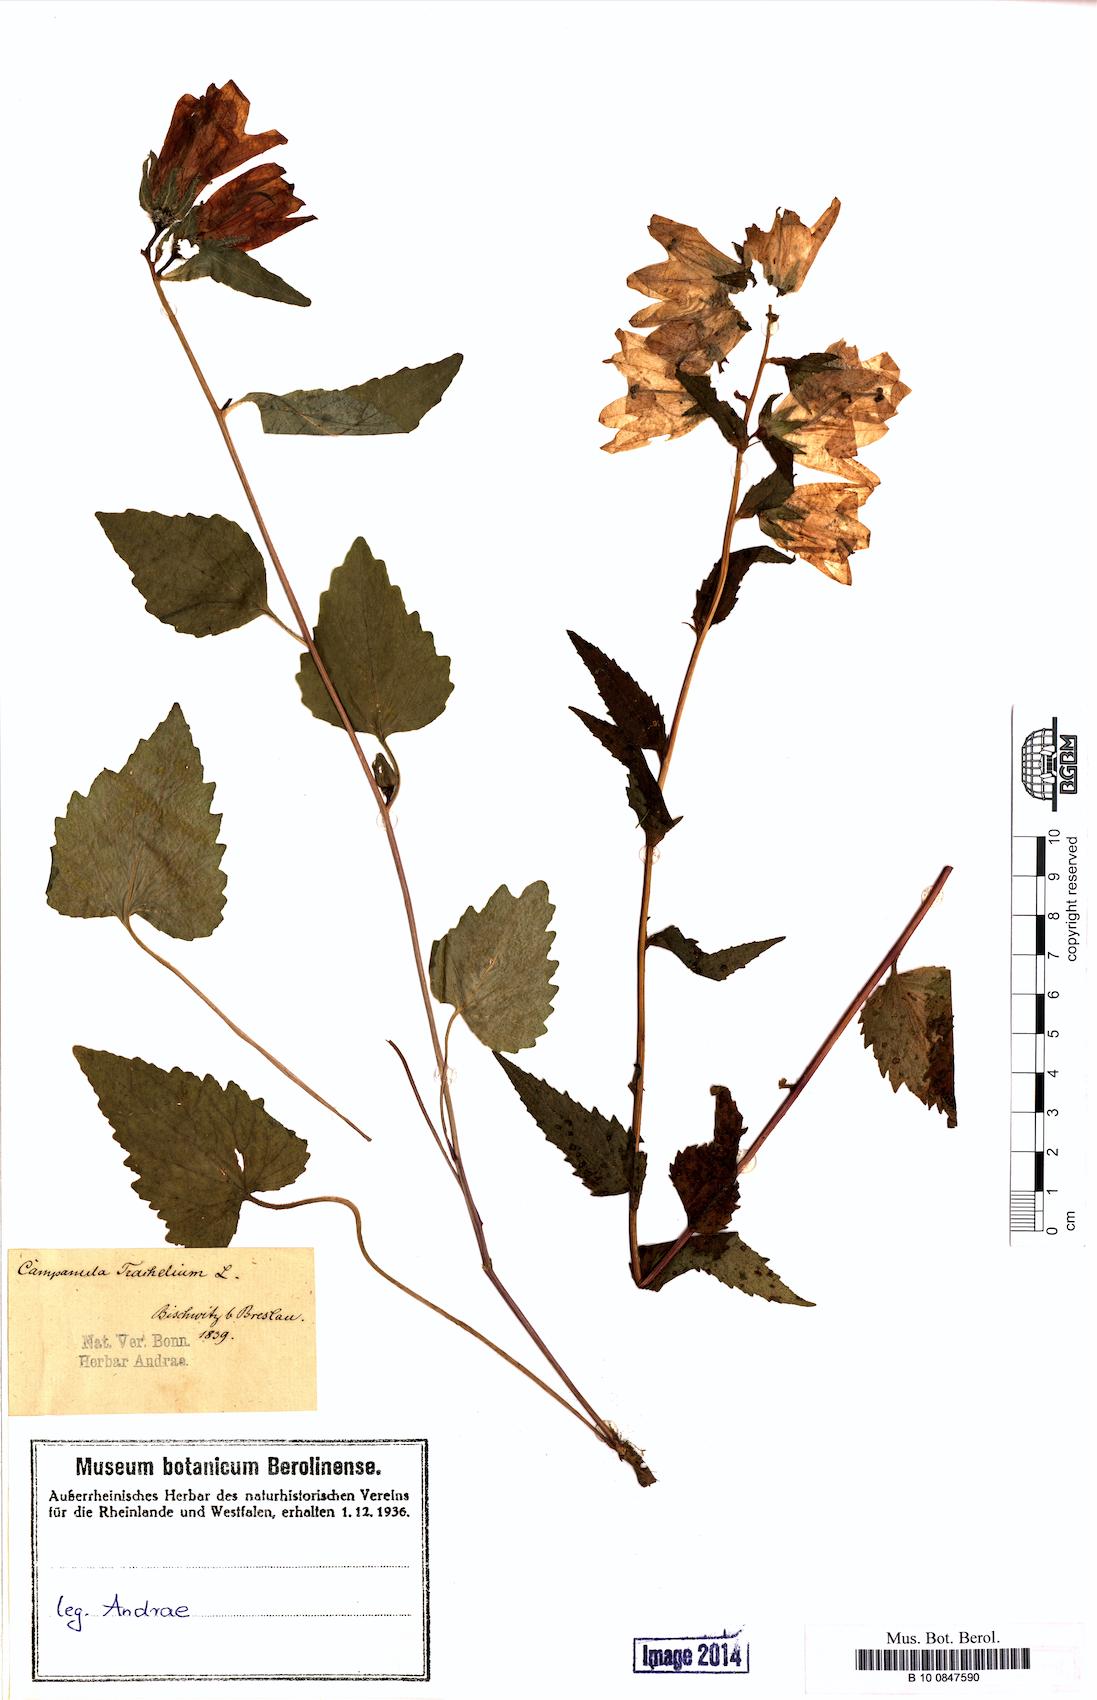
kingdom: Plantae
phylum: Tracheophyta
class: Magnoliopsida
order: Asterales
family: Campanulaceae
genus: Campanula
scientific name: Campanula trachelium
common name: Nettle-leaved bellflower
